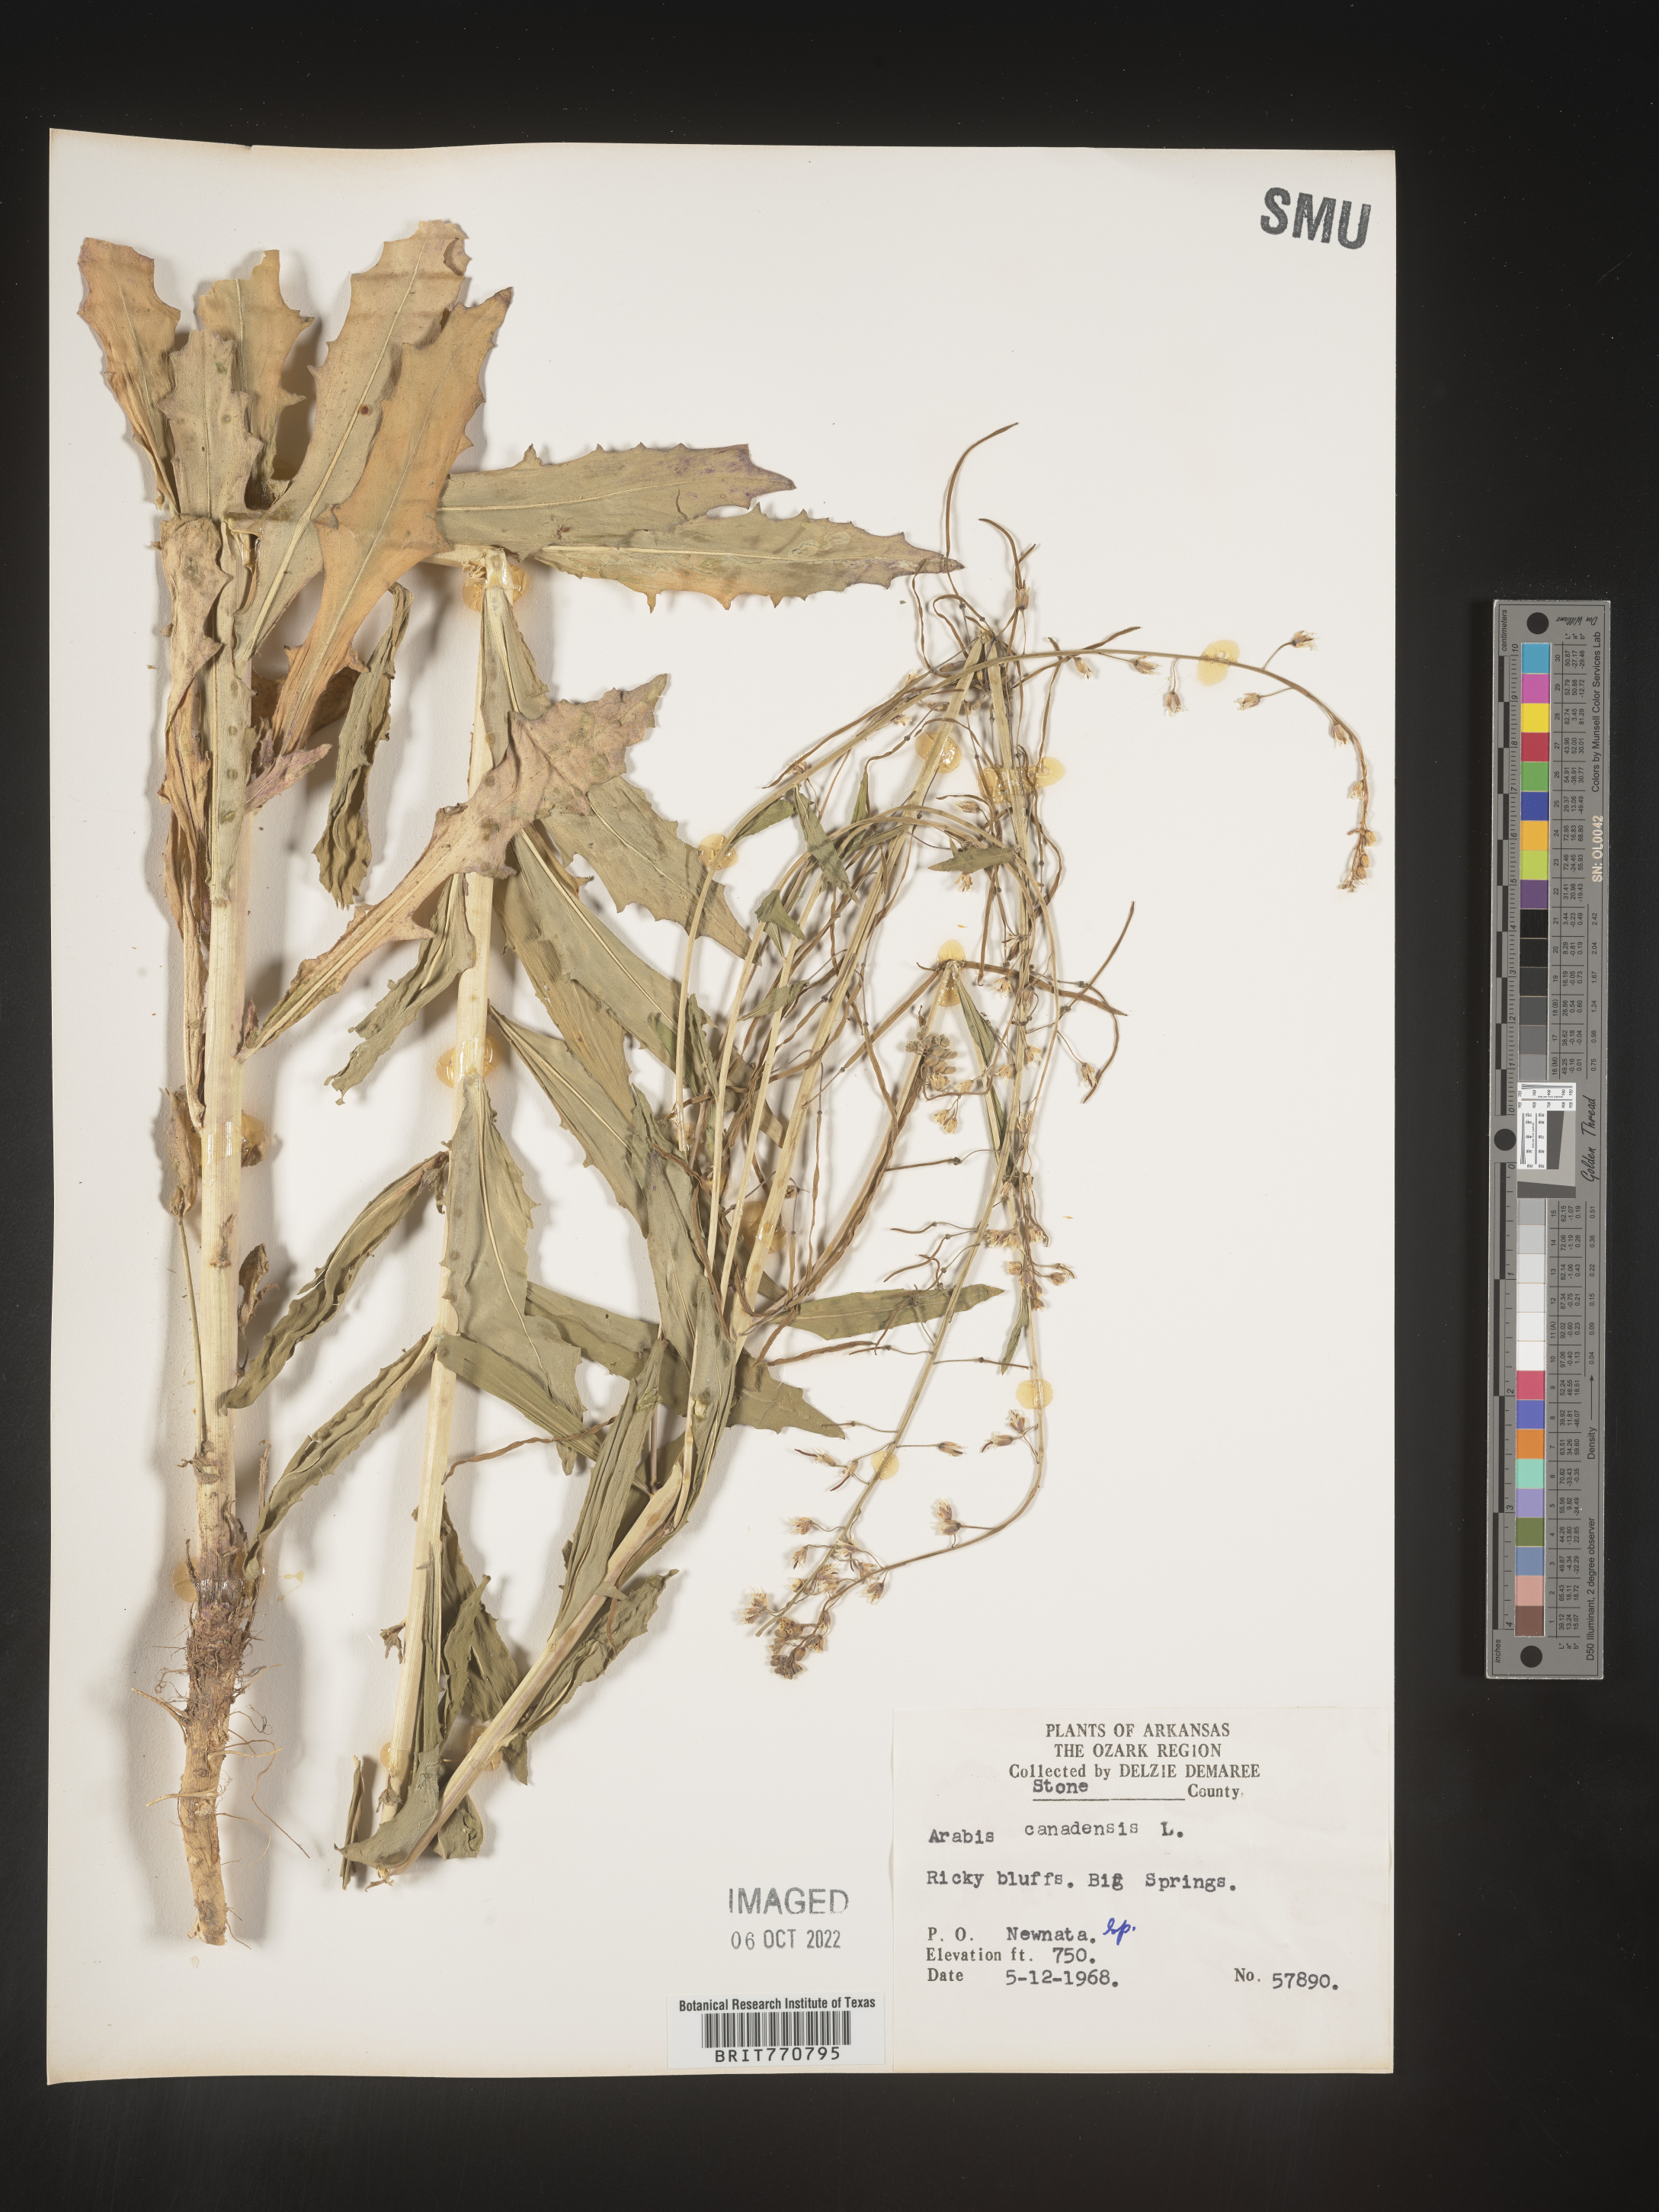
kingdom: Plantae
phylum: Tracheophyta
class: Magnoliopsida
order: Brassicales
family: Brassicaceae
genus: Borodinia
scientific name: Borodinia canadensis
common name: Sicklepod
